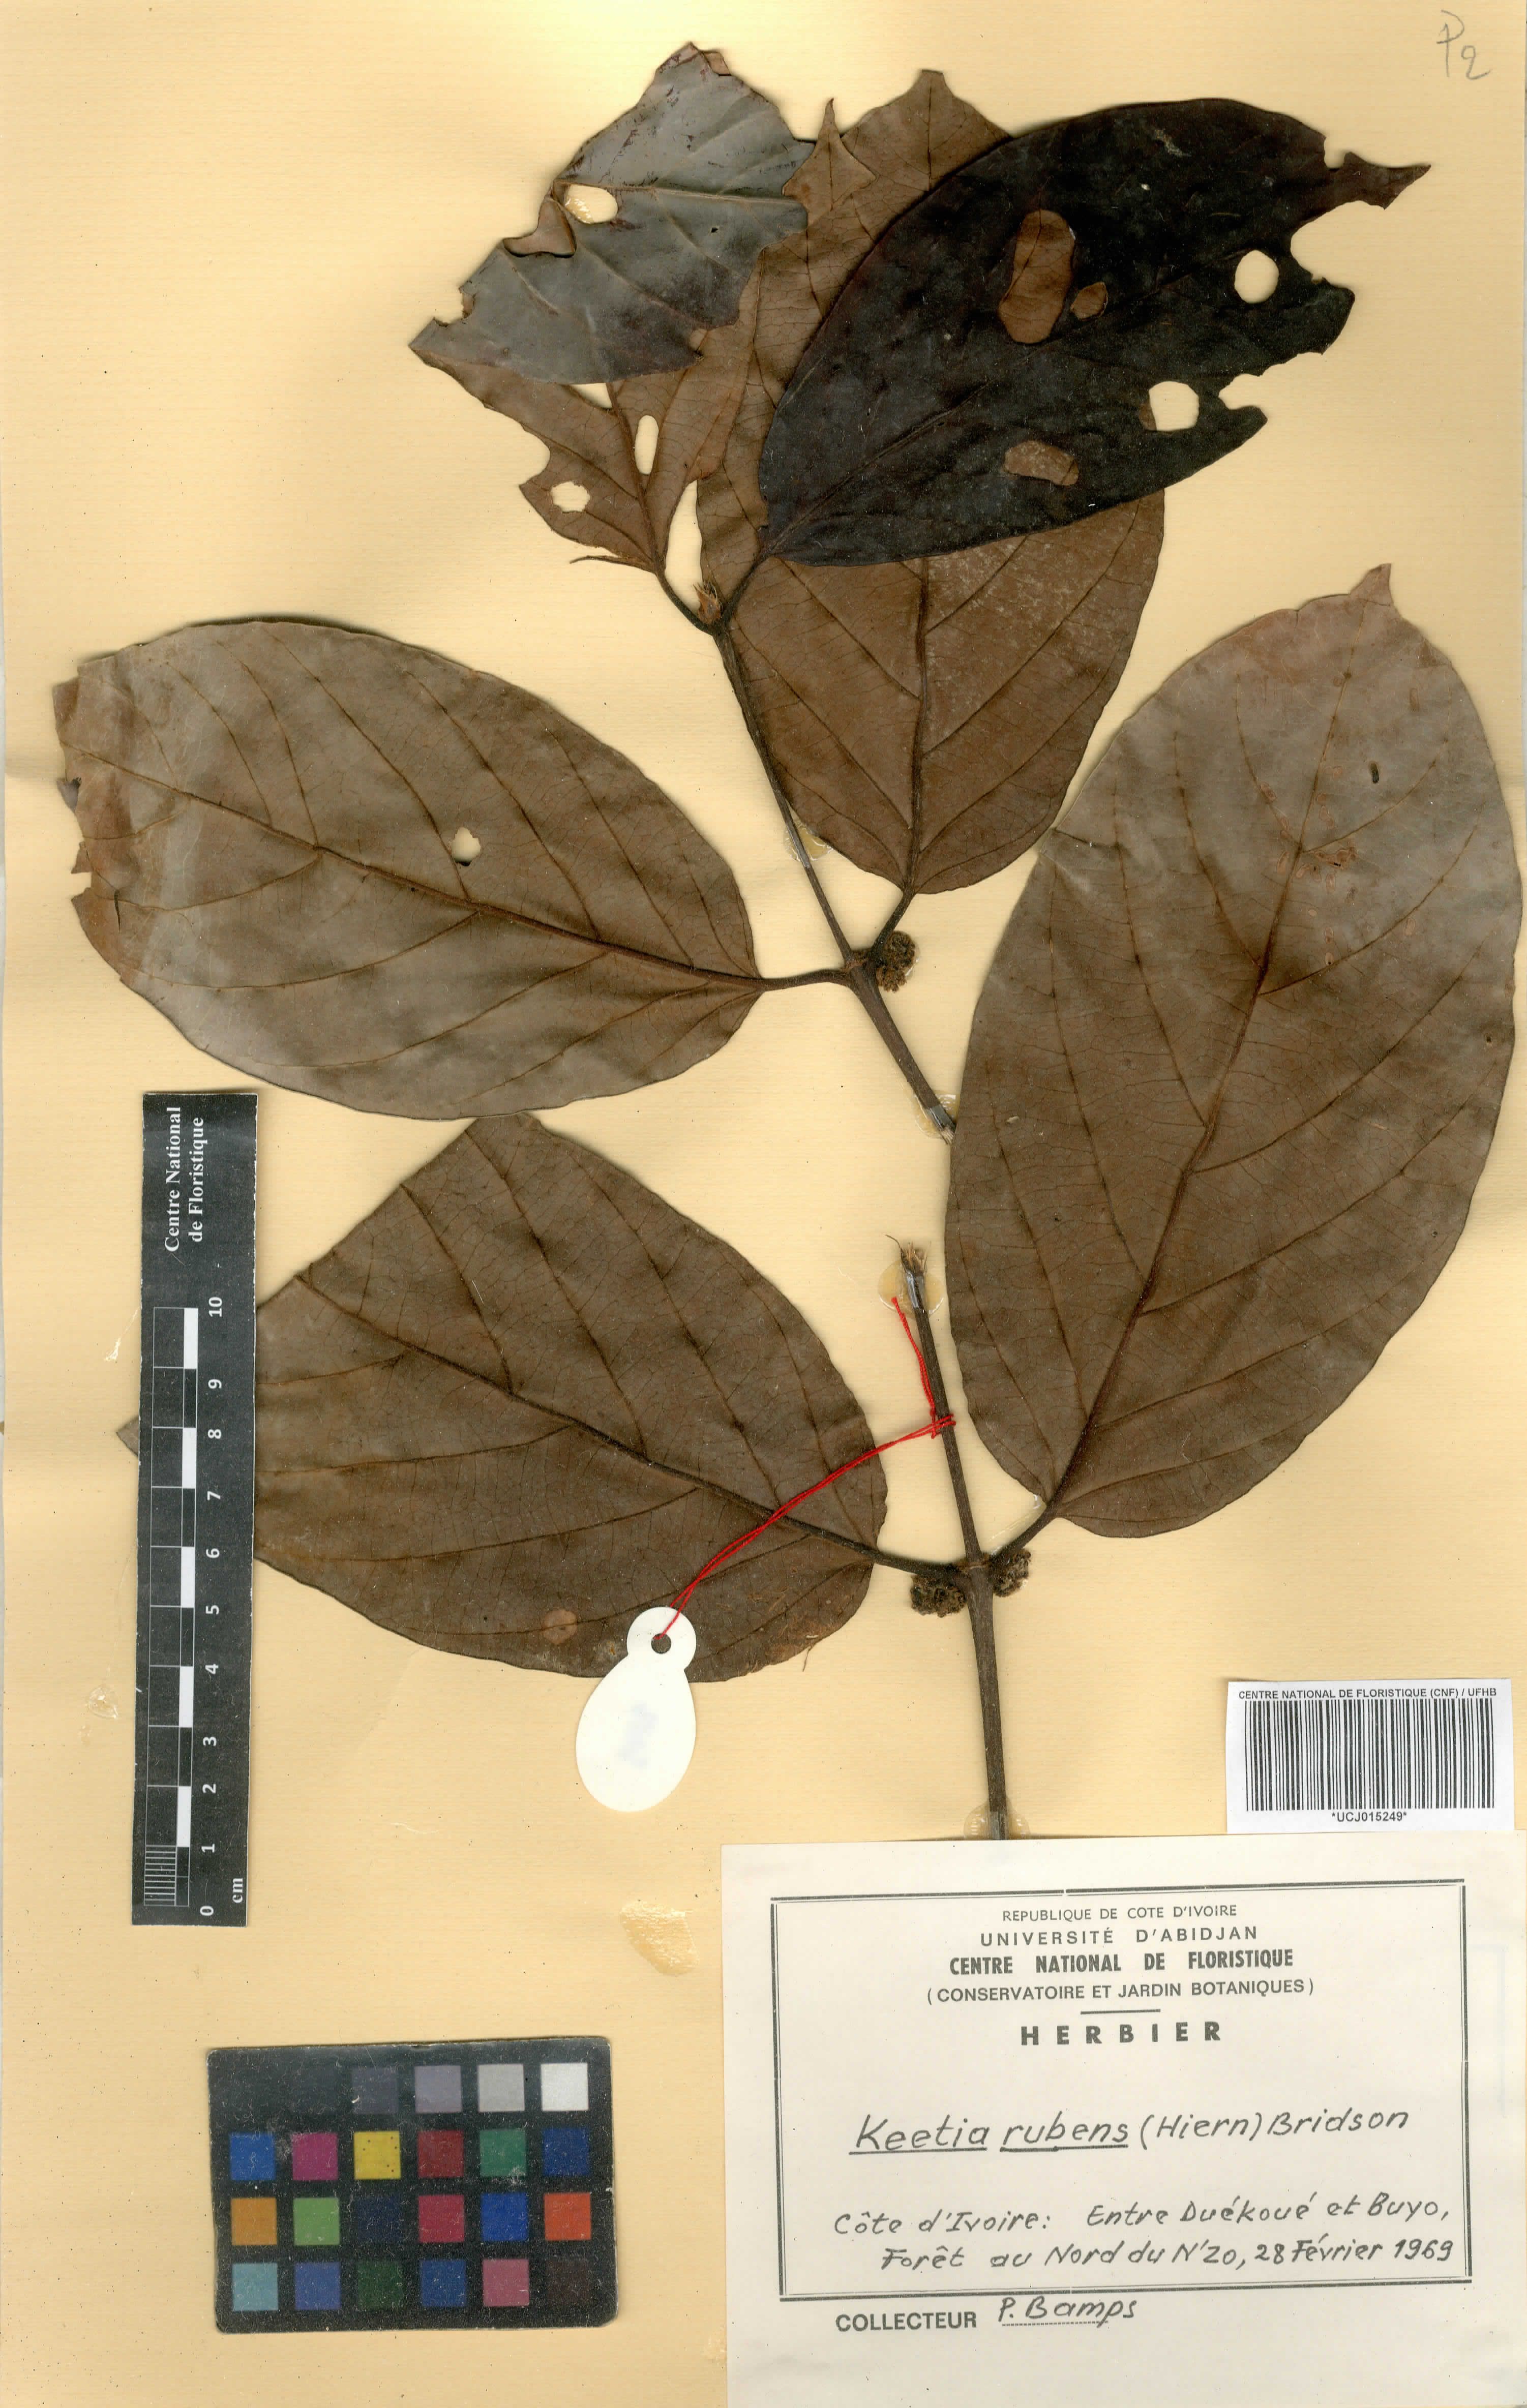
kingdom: Plantae
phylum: Tracheophyta
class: Magnoliopsida
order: Gentianales
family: Rubiaceae
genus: Keetia
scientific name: Keetia rubens
